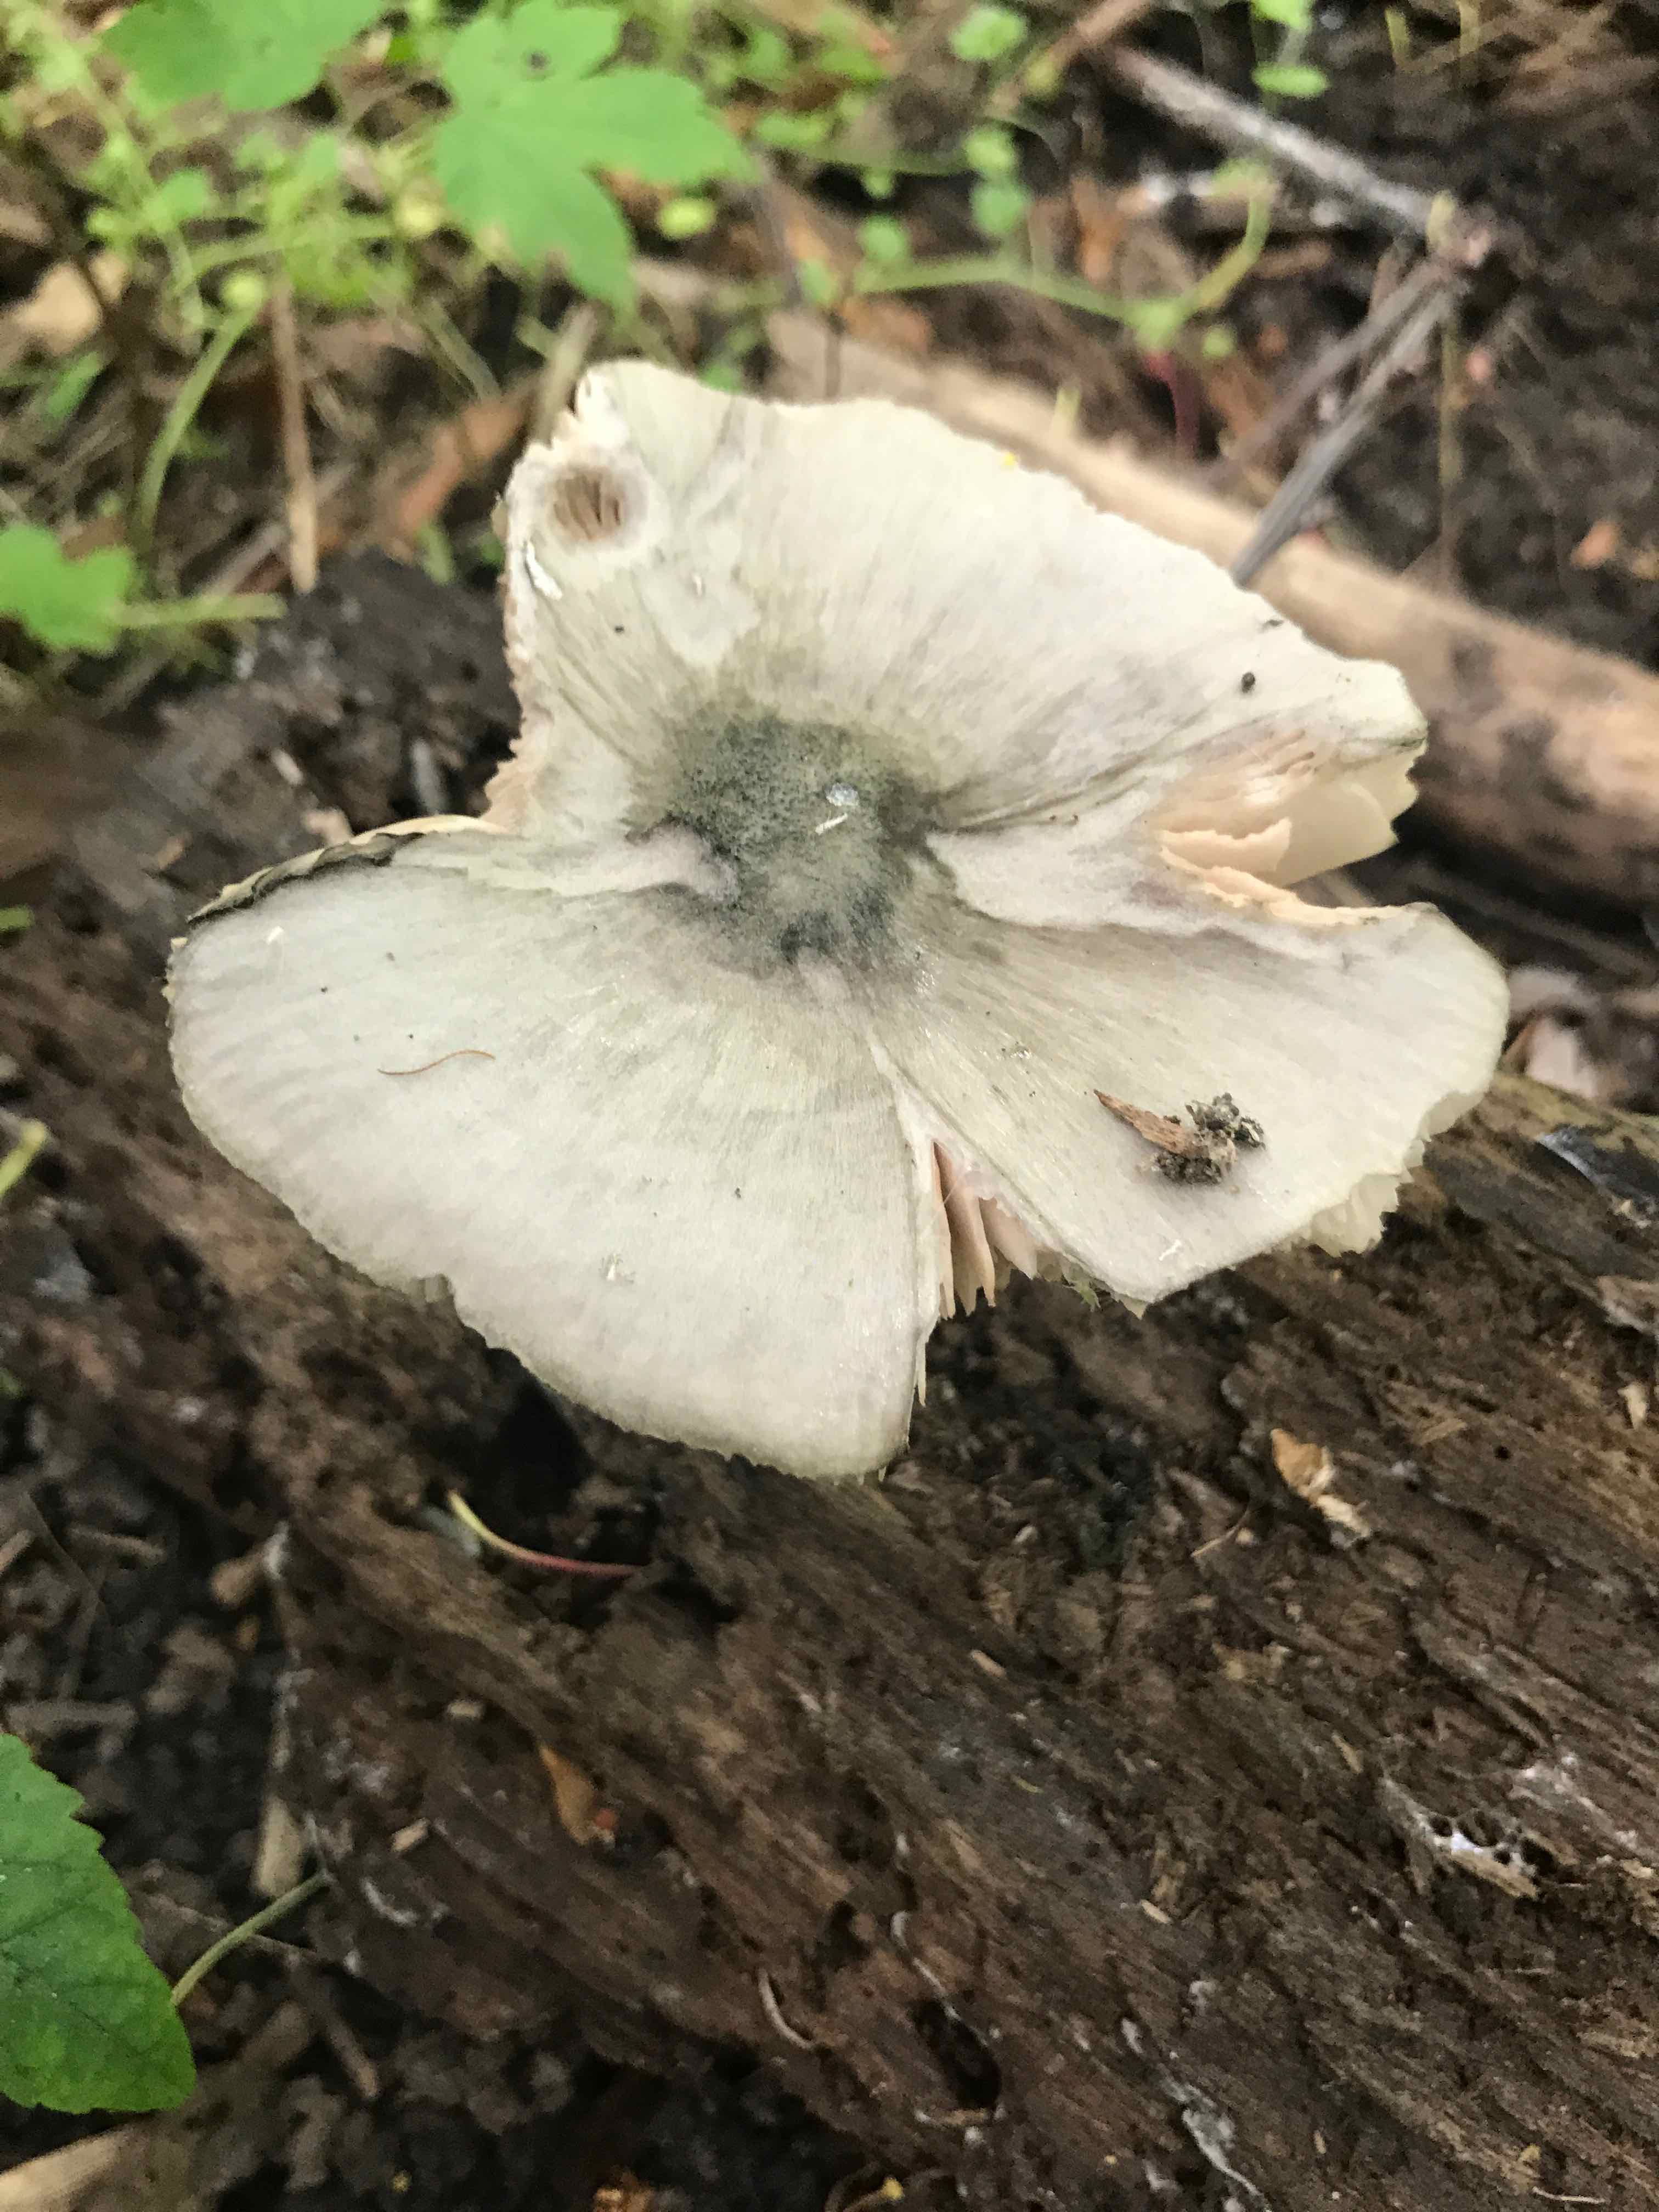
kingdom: Fungi
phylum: Basidiomycota
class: Agaricomycetes
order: Agaricales
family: Pluteaceae
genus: Pluteus
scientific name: Pluteus salicinus
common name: stiv skærmhat
